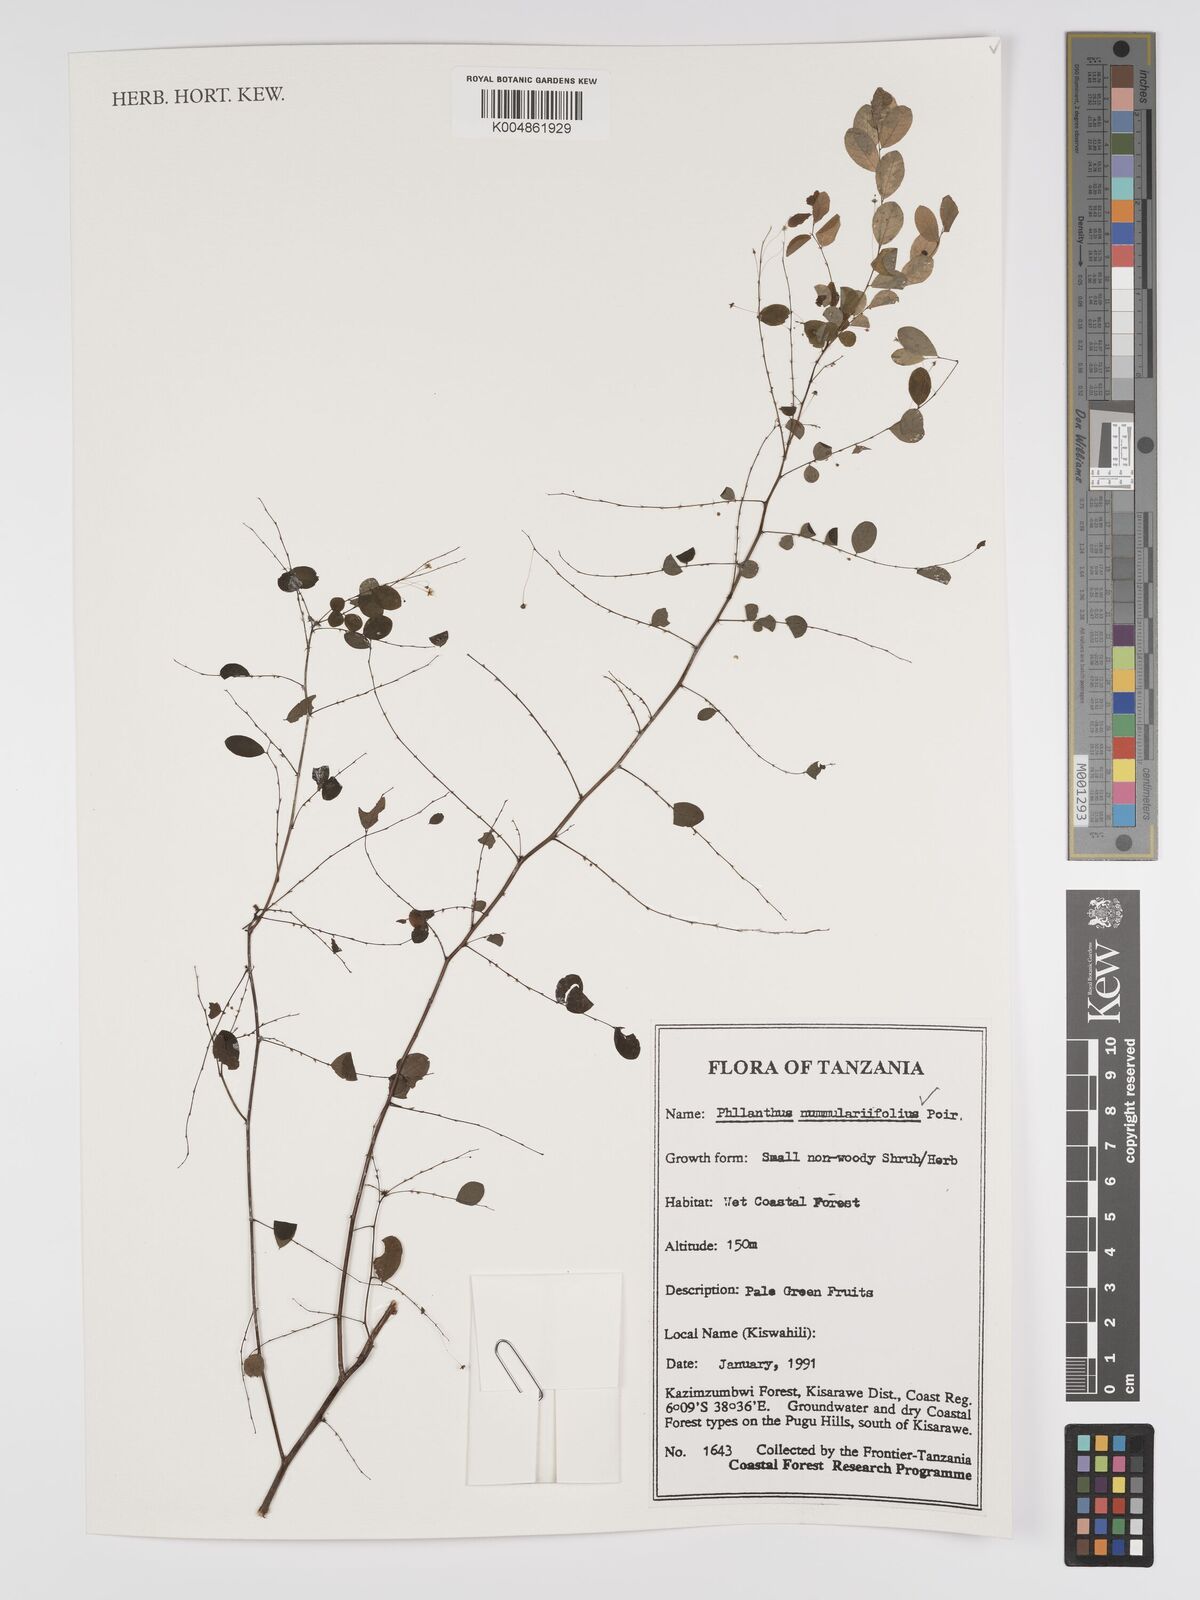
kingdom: Plantae
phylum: Tracheophyta
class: Magnoliopsida
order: Malpighiales
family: Phyllanthaceae
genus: Phyllanthus
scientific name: Phyllanthus nummulariifolius
